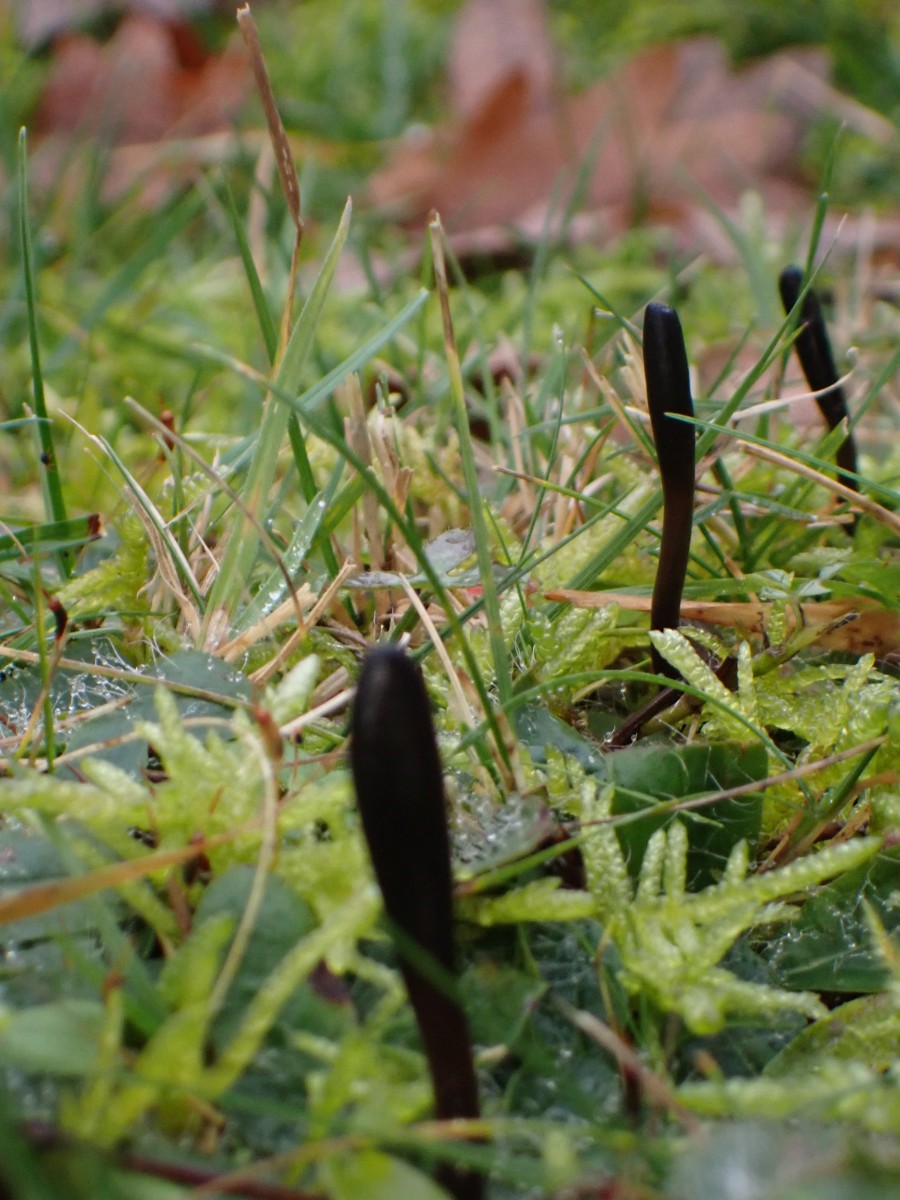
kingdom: Fungi
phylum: Ascomycota
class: Geoglossomycetes
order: Geoglossales
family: Geoglossaceae
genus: Geoglossum
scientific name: Geoglossum
